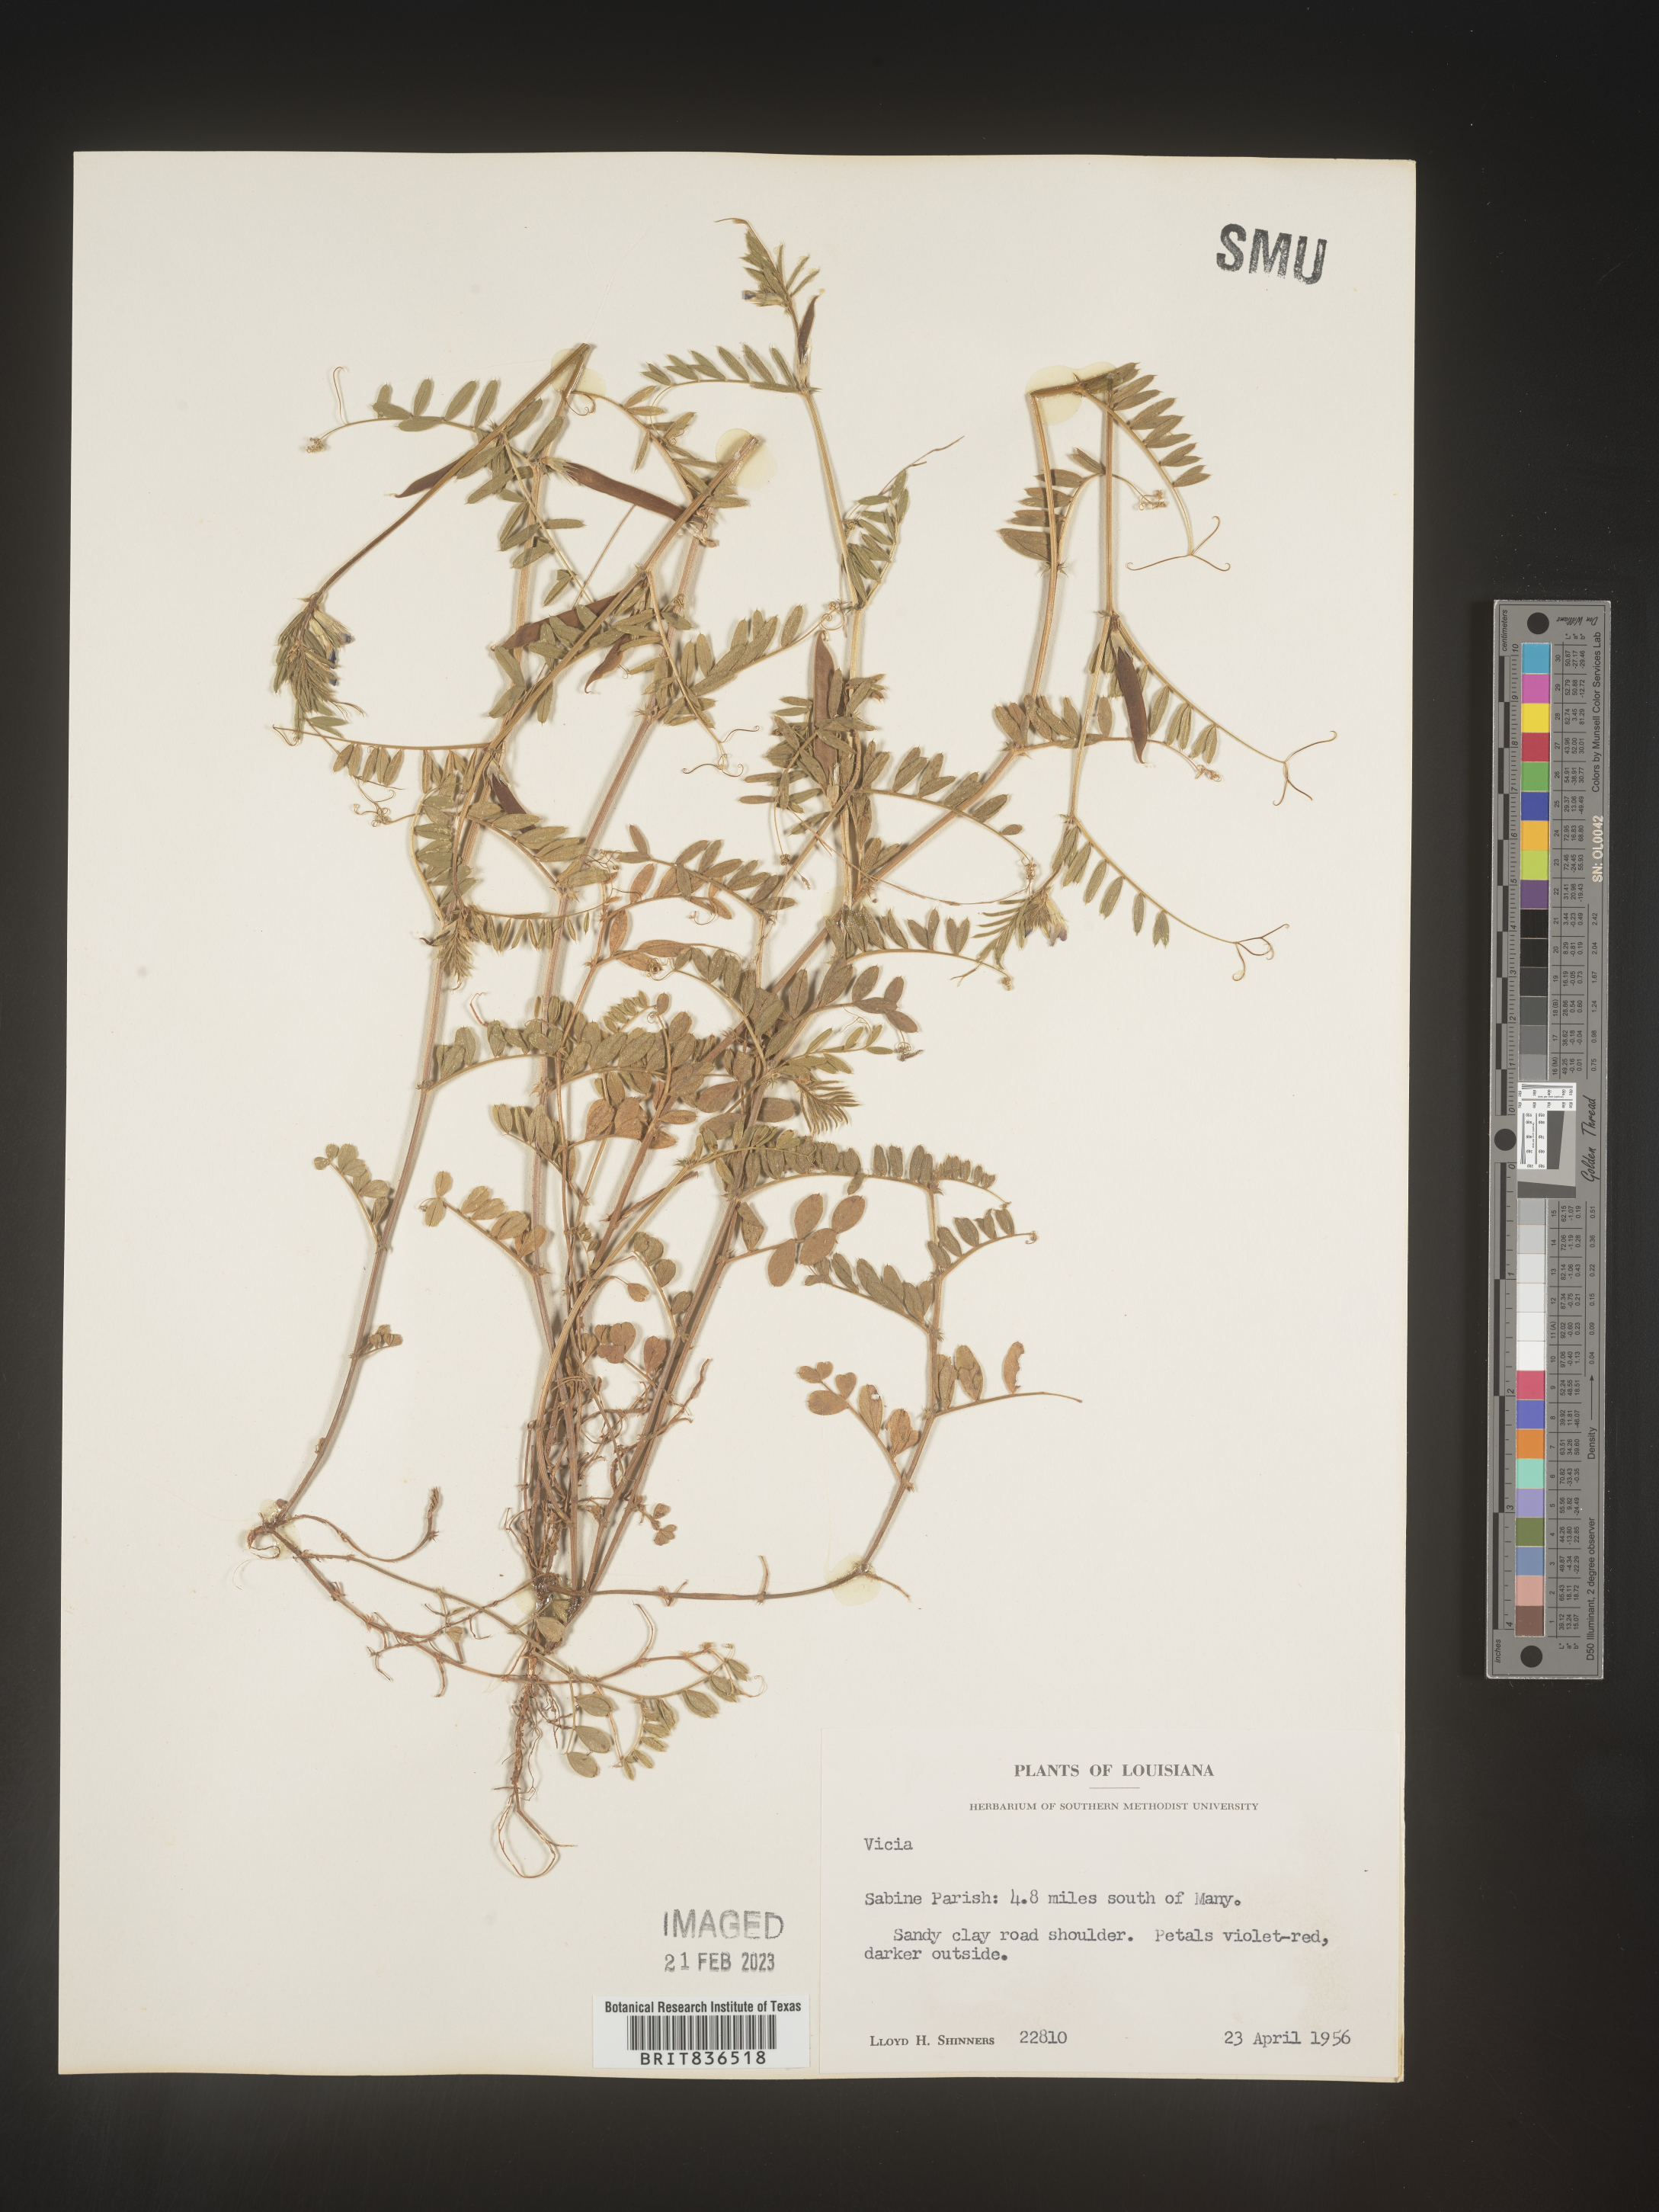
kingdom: Plantae
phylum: Tracheophyta
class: Magnoliopsida
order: Fabales
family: Fabaceae
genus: Vicia
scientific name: Vicia
